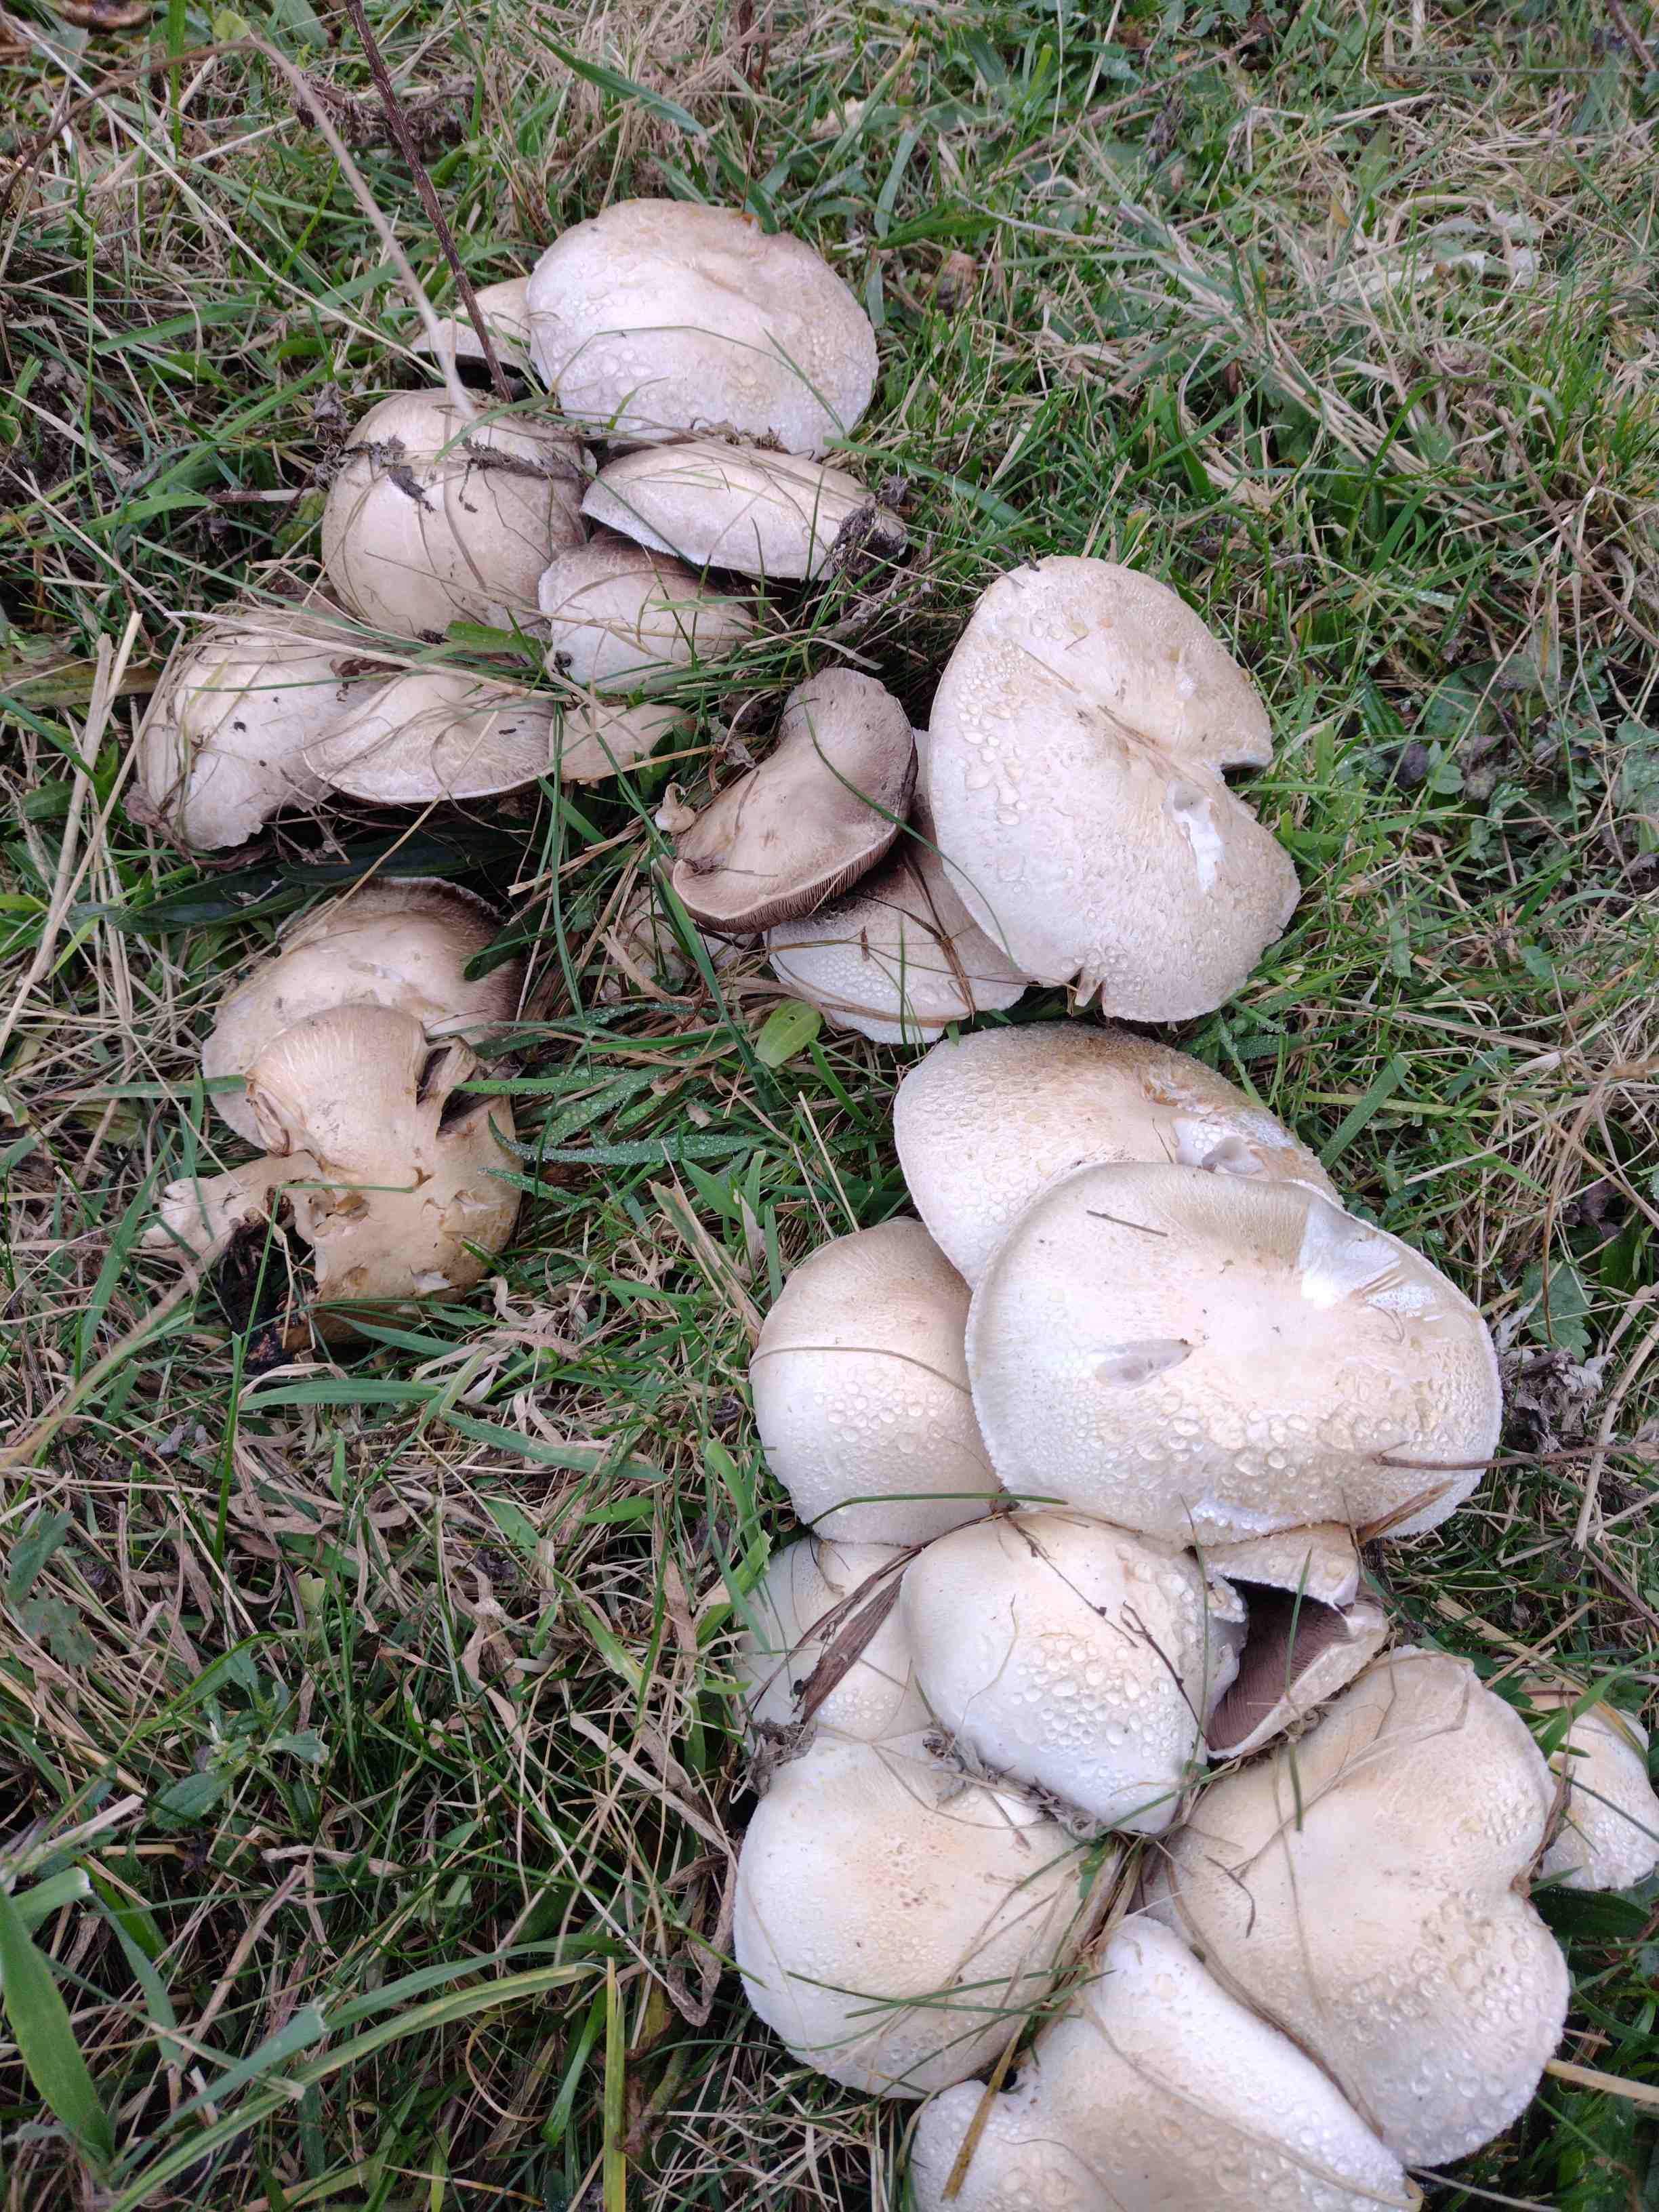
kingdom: Fungi
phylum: Basidiomycota
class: Agaricomycetes
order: Agaricales
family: Agaricaceae
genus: Agaricus
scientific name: Agaricus
